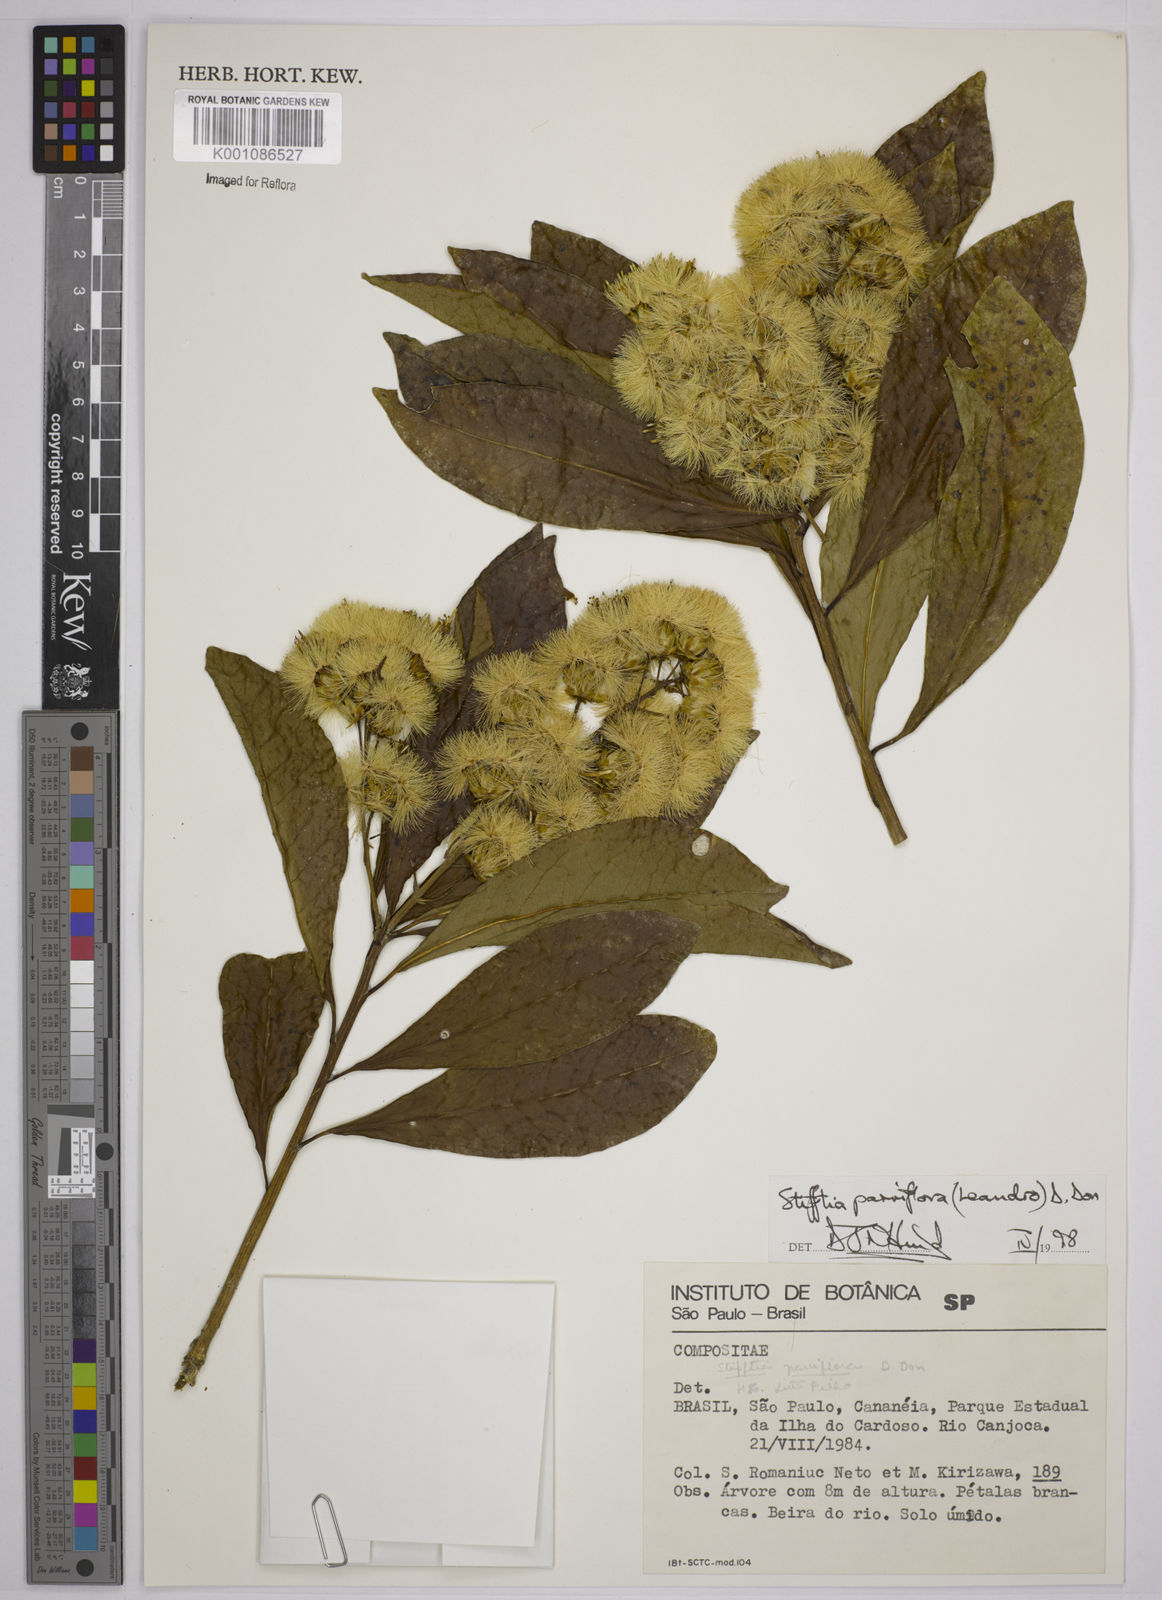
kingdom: Plantae
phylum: Tracheophyta
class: Magnoliopsida
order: Asterales
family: Asteraceae
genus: Stifftia
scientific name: Stifftia parviflora
